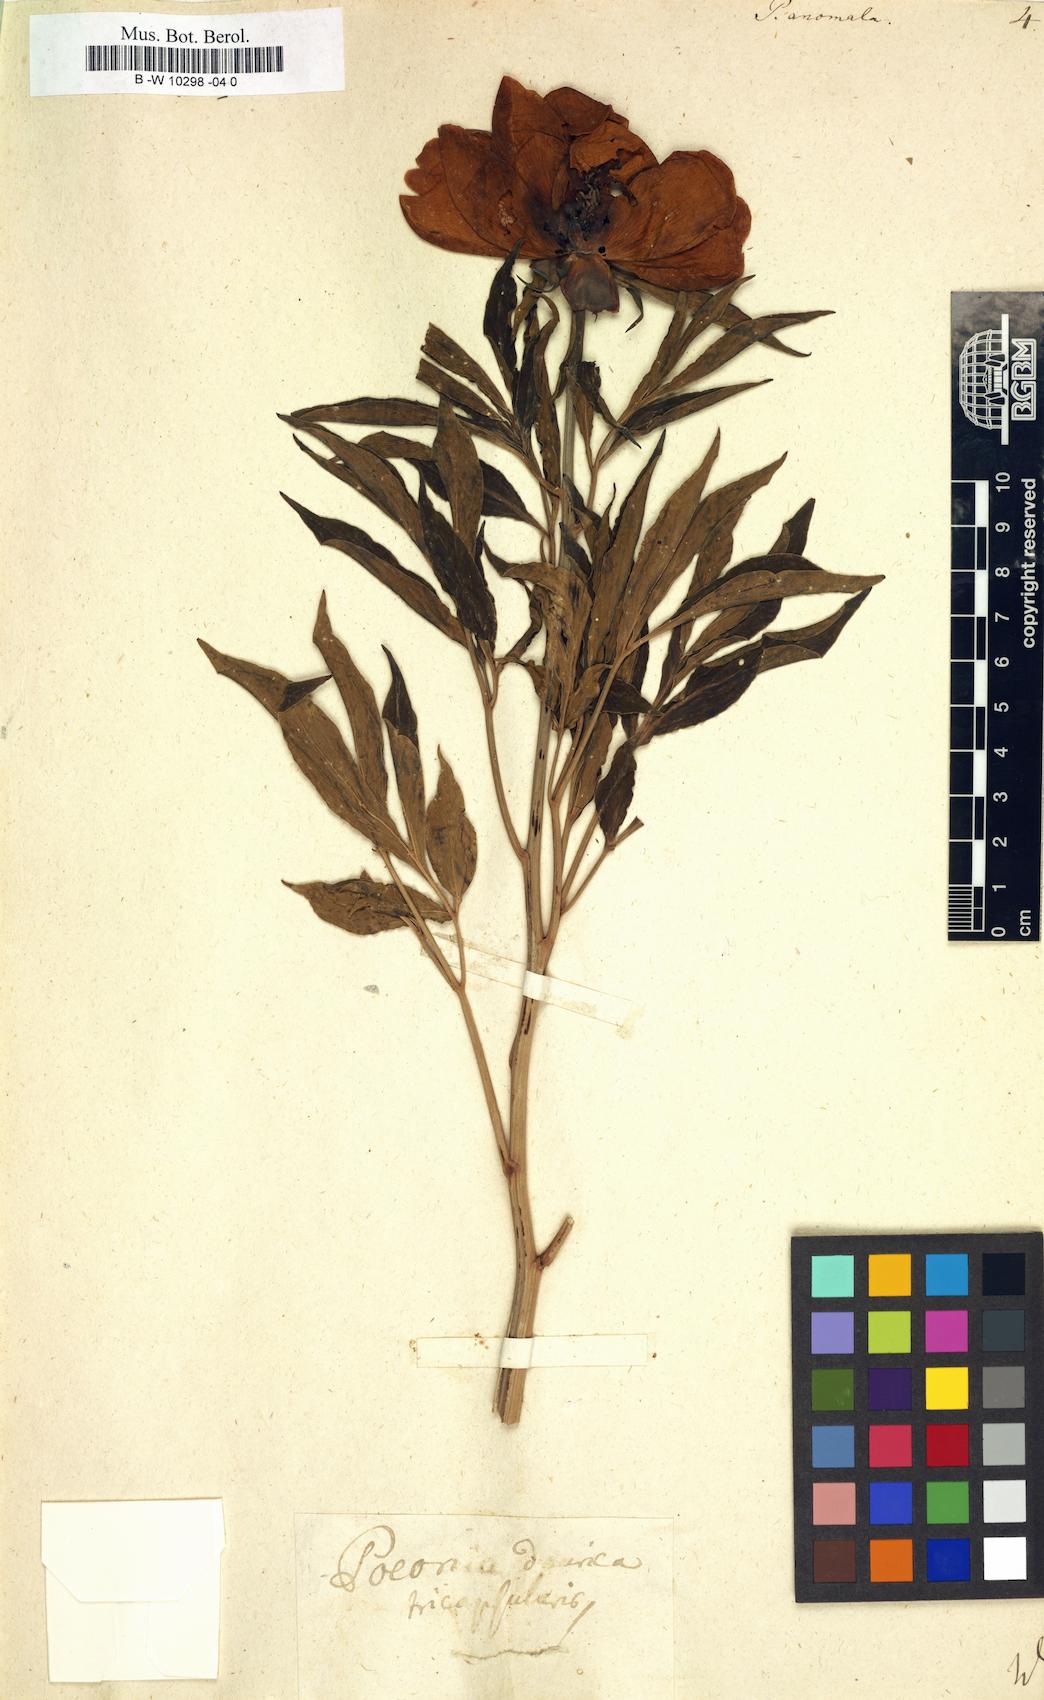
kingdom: Plantae
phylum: Tracheophyta
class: Magnoliopsida
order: Saxifragales
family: Paeoniaceae
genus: Paeonia
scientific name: Paeonia anomala
